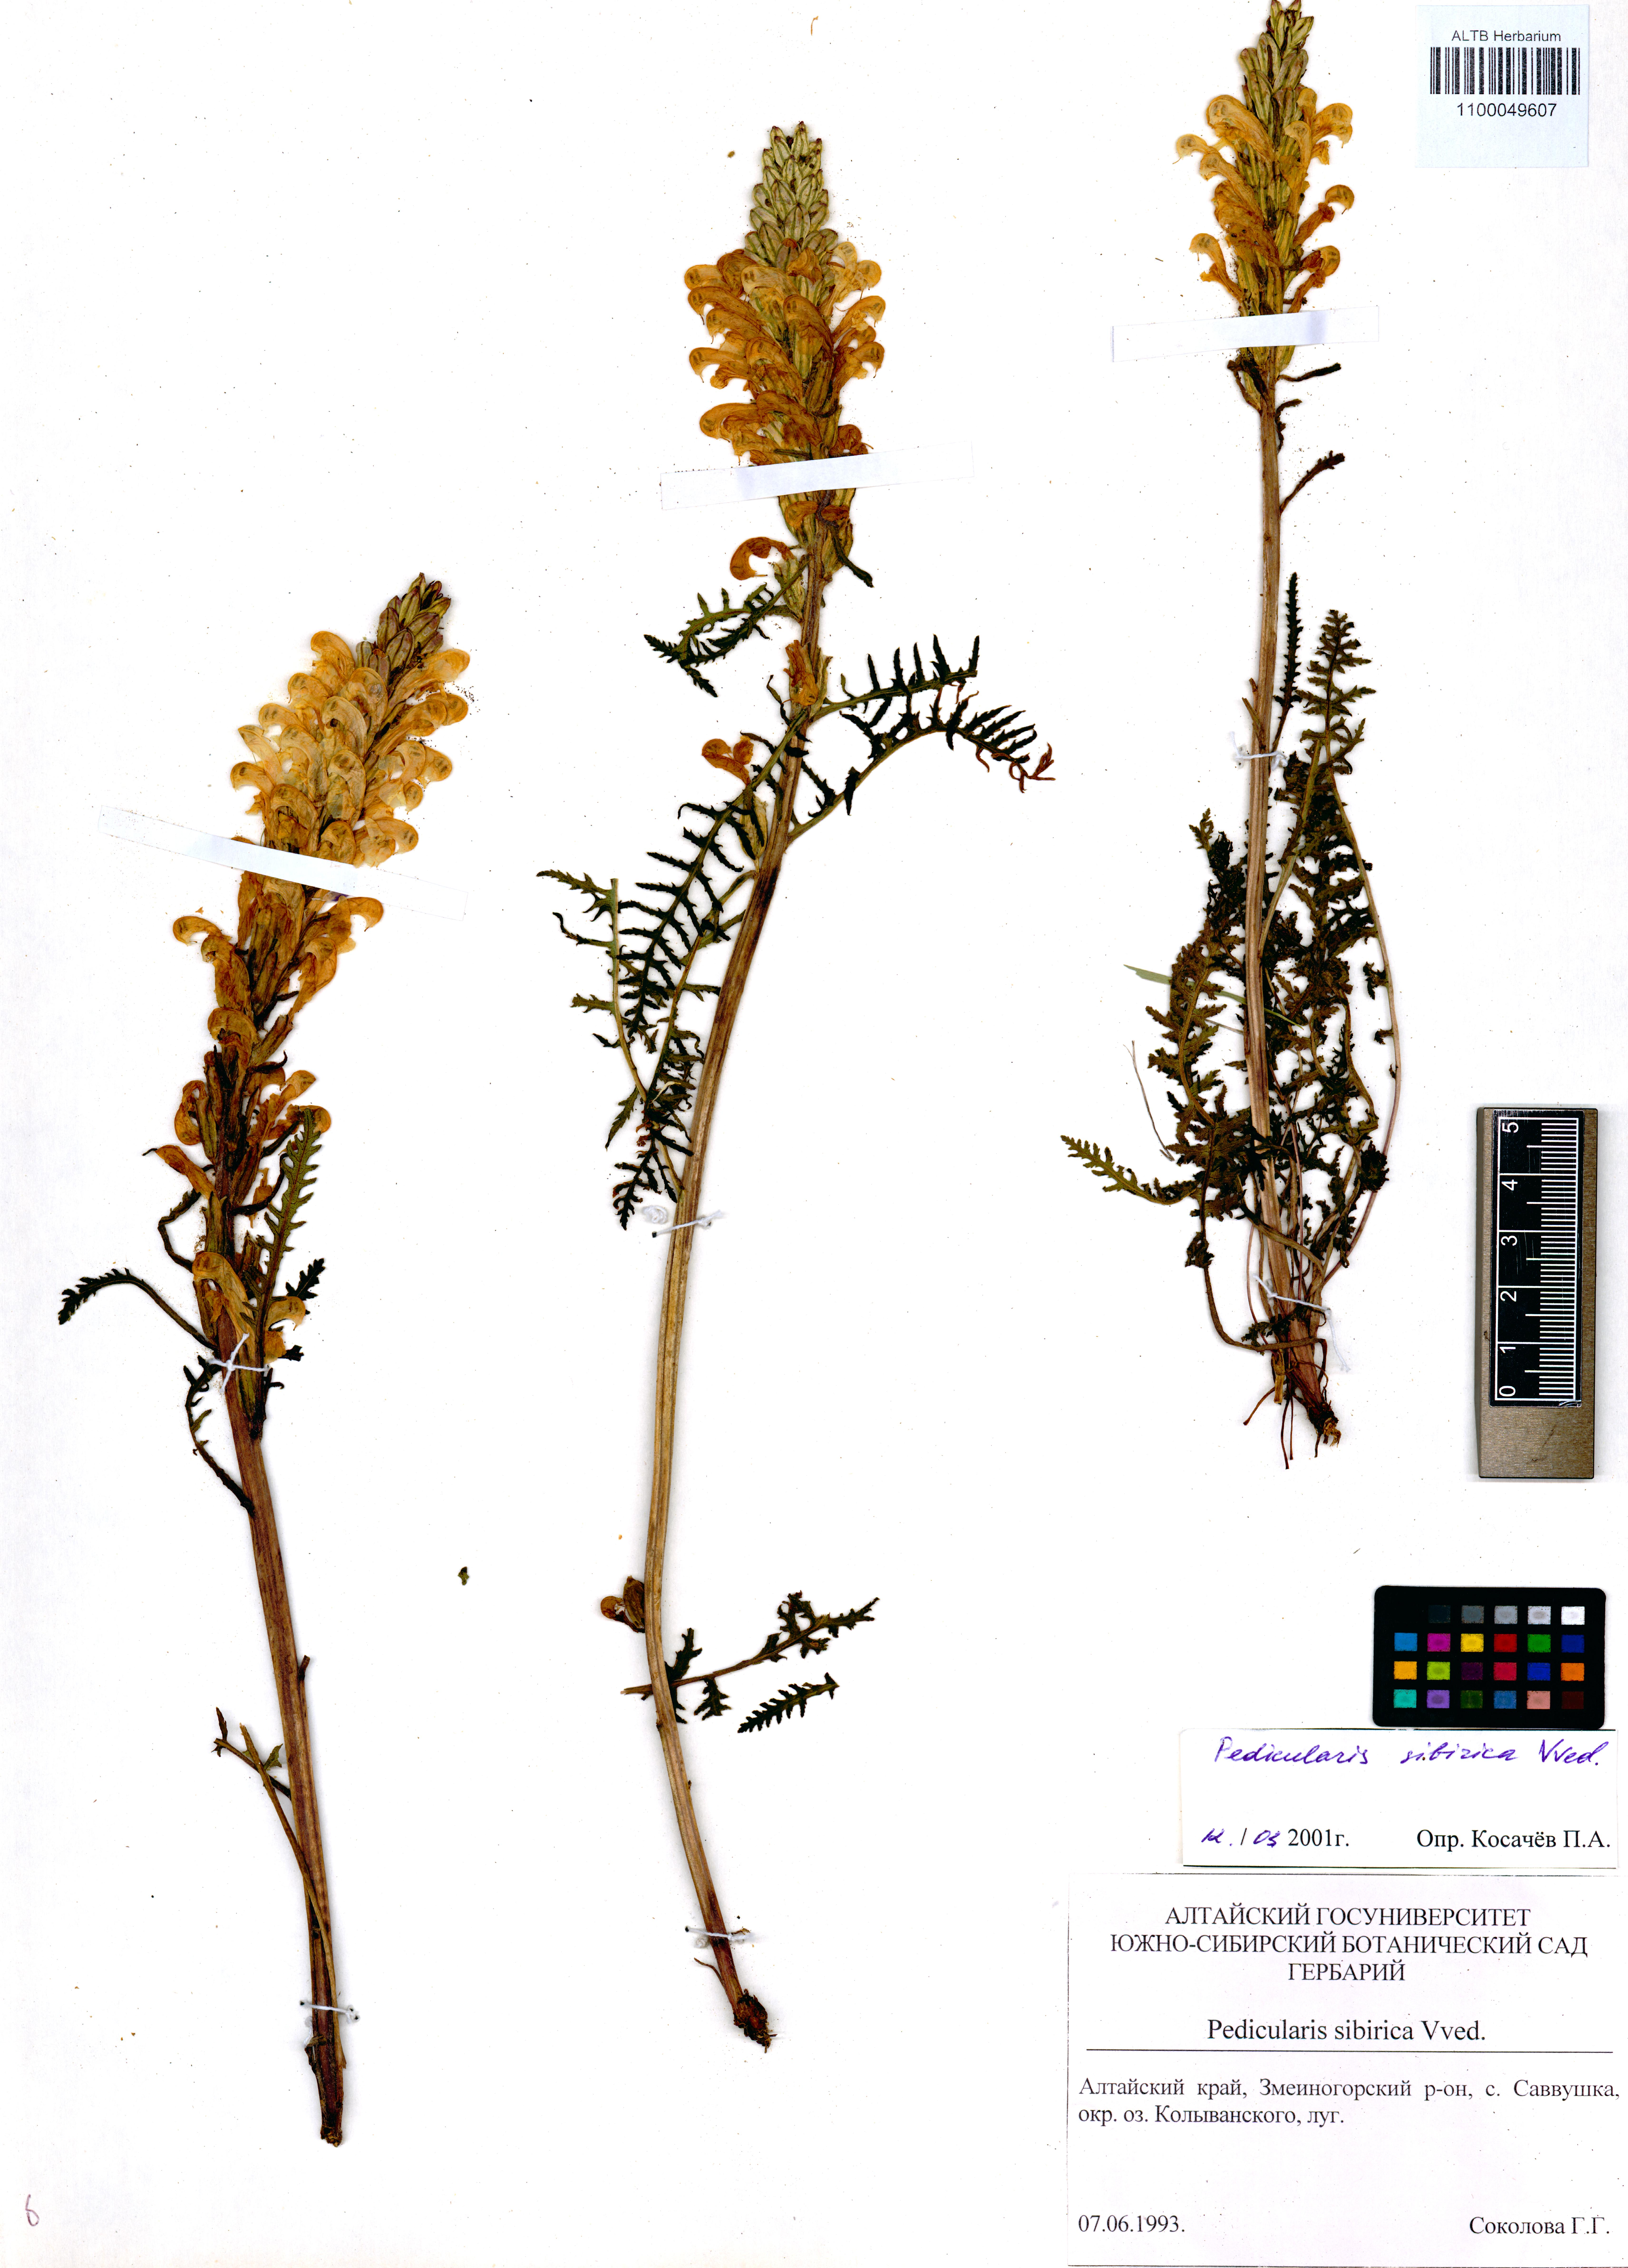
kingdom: Plantae
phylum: Tracheophyta
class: Magnoliopsida
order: Lamiales
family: Orobanchaceae
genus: Pedicularis
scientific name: Pedicularis sibirica
